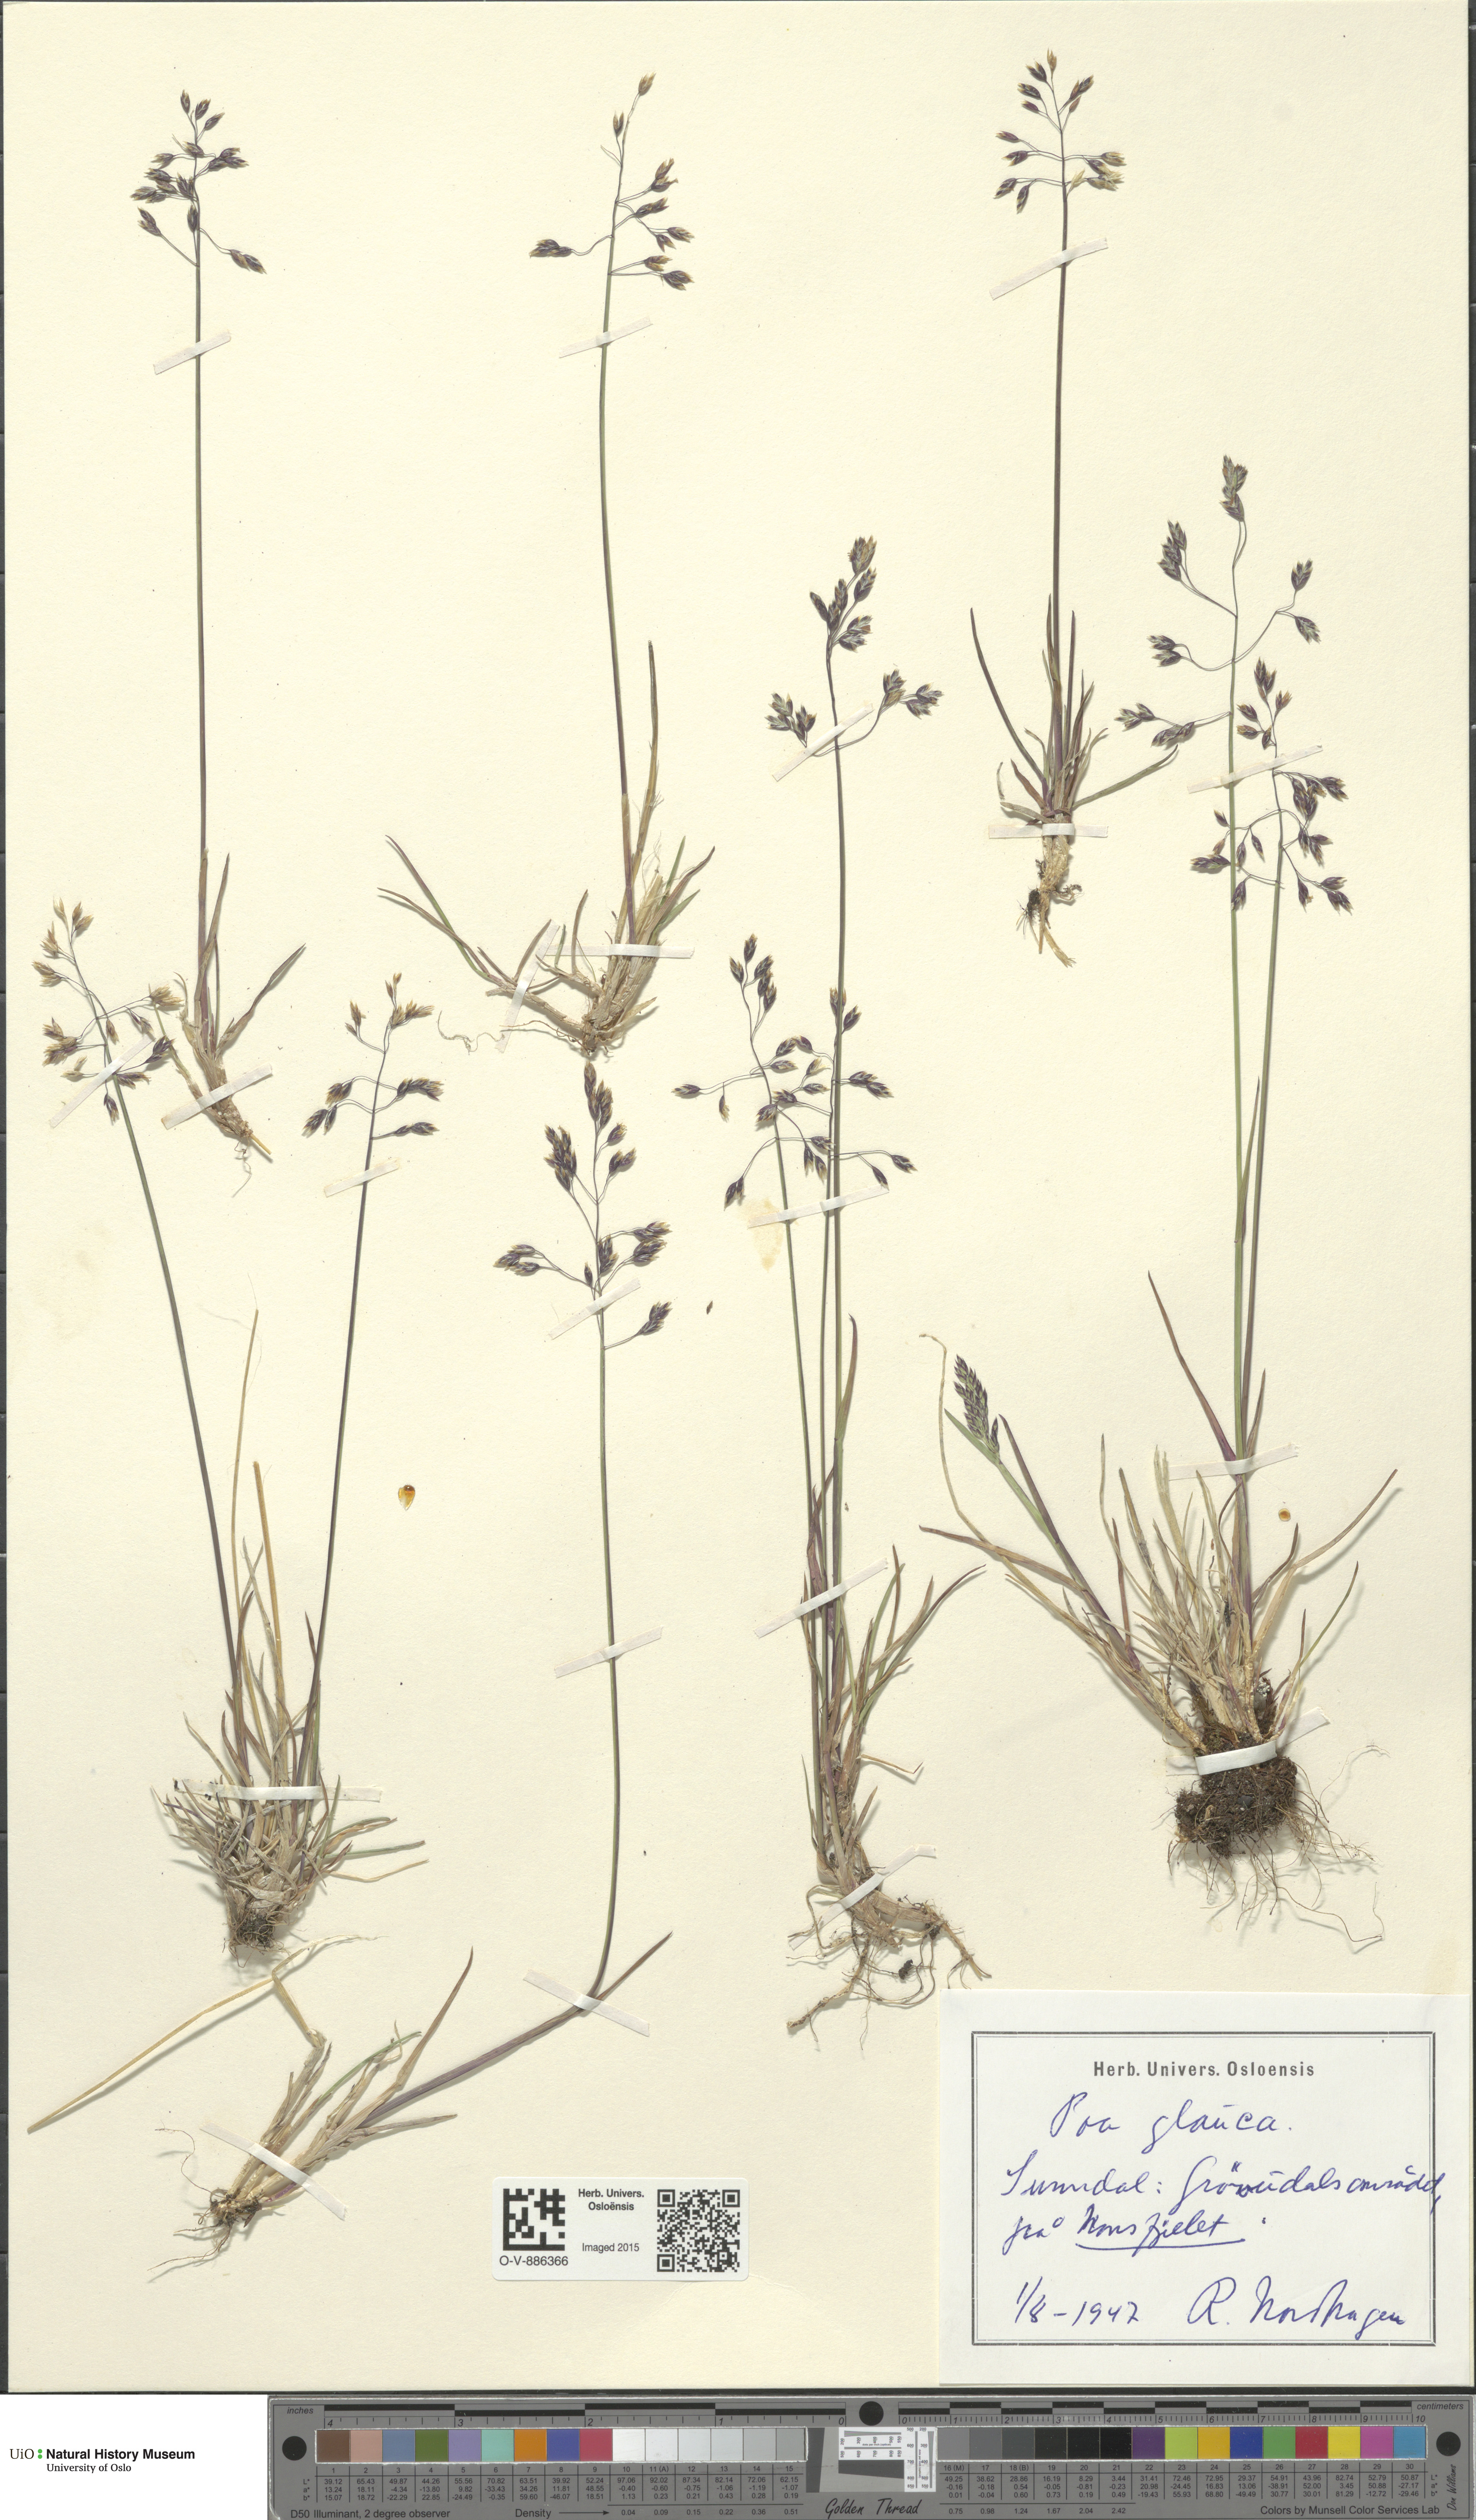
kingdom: Plantae
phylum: Tracheophyta
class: Liliopsida
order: Poales
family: Poaceae
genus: Poa
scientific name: Poa glauca
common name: Glaucous bluegrass
